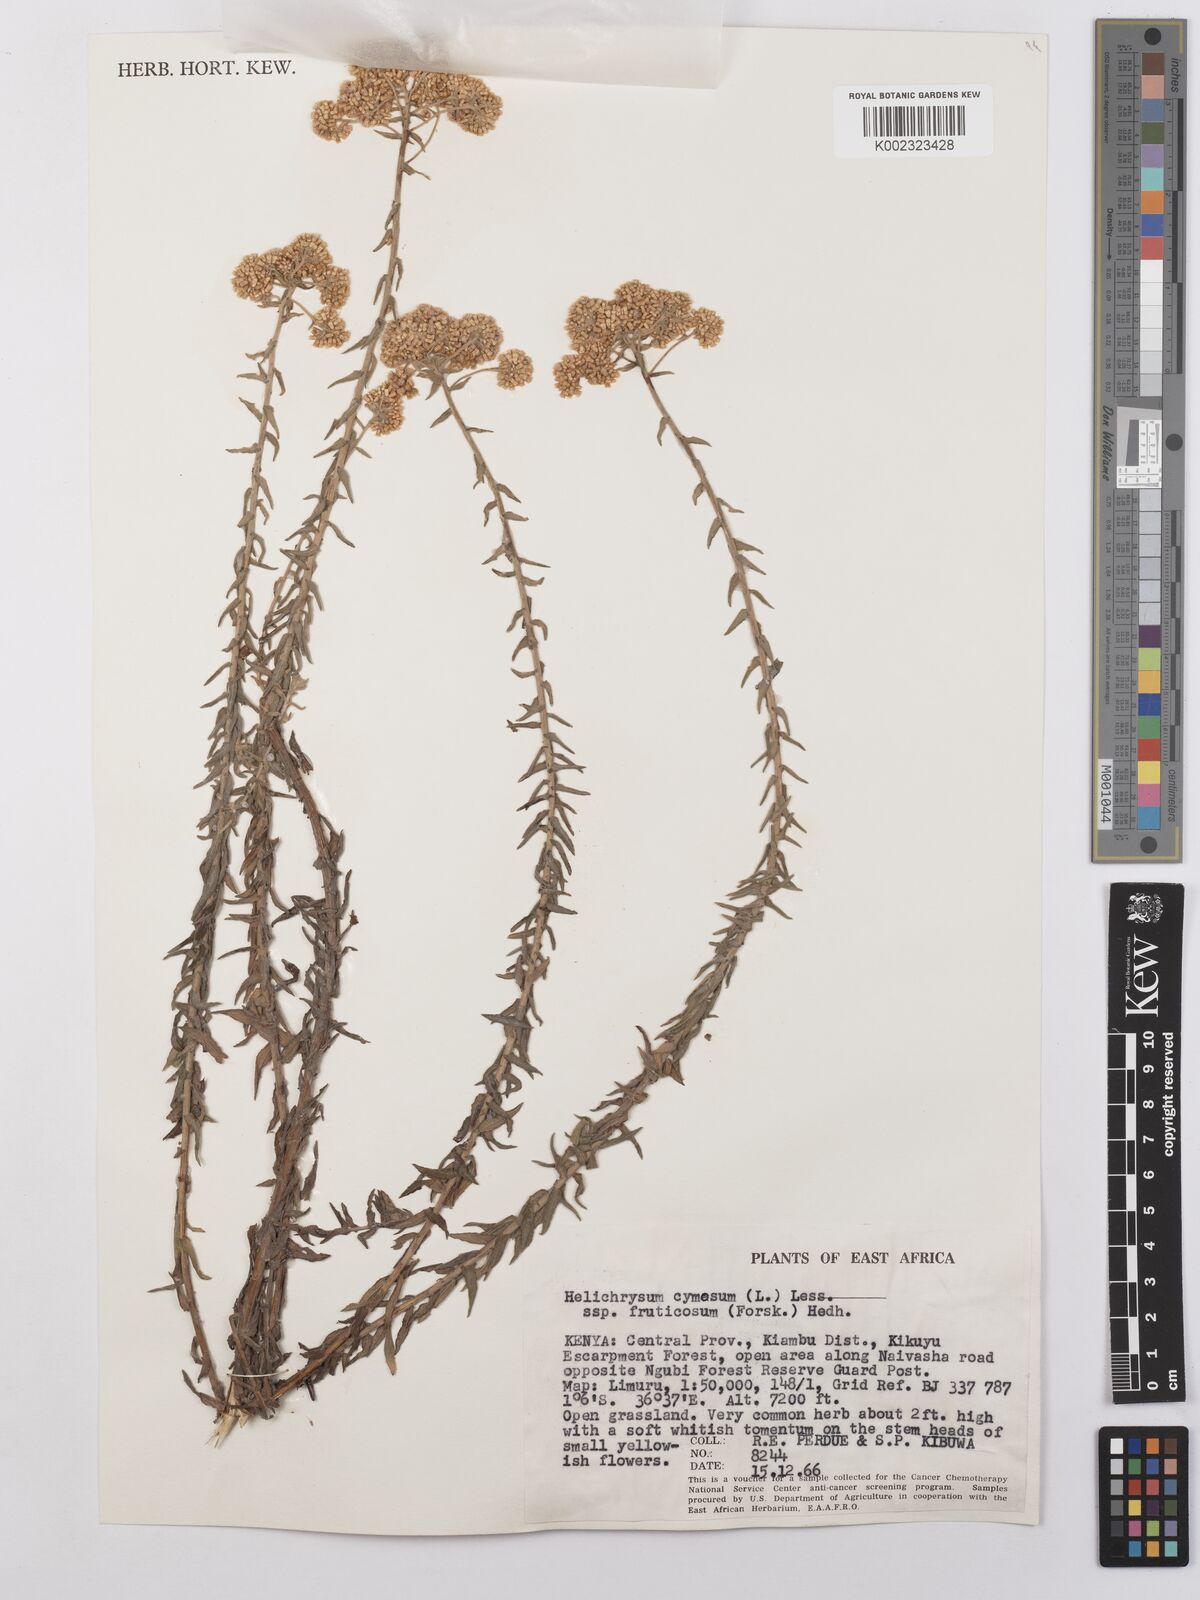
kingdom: Plantae
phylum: Tracheophyta
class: Magnoliopsida
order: Asterales
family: Asteraceae
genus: Helichrysum
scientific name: Helichrysum forskahlii
